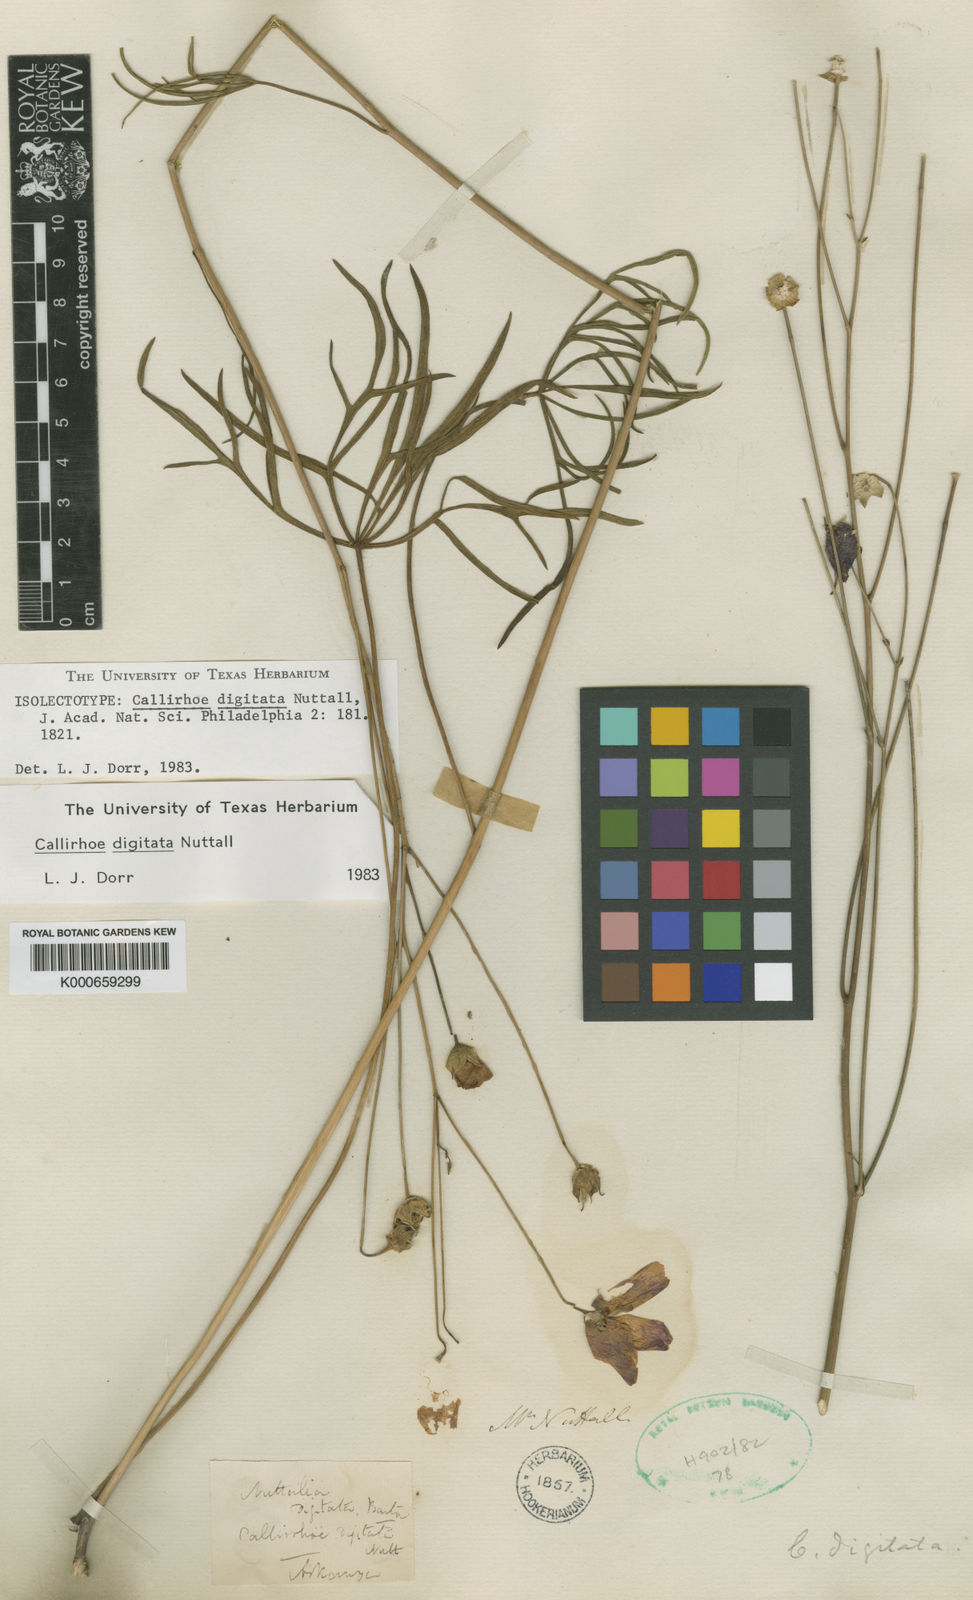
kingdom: Plantae
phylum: Tracheophyta
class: Magnoliopsida
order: Malvales
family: Malvaceae
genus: Callirhoe
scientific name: Callirhoe digitata
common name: Finger poppy-mallow
